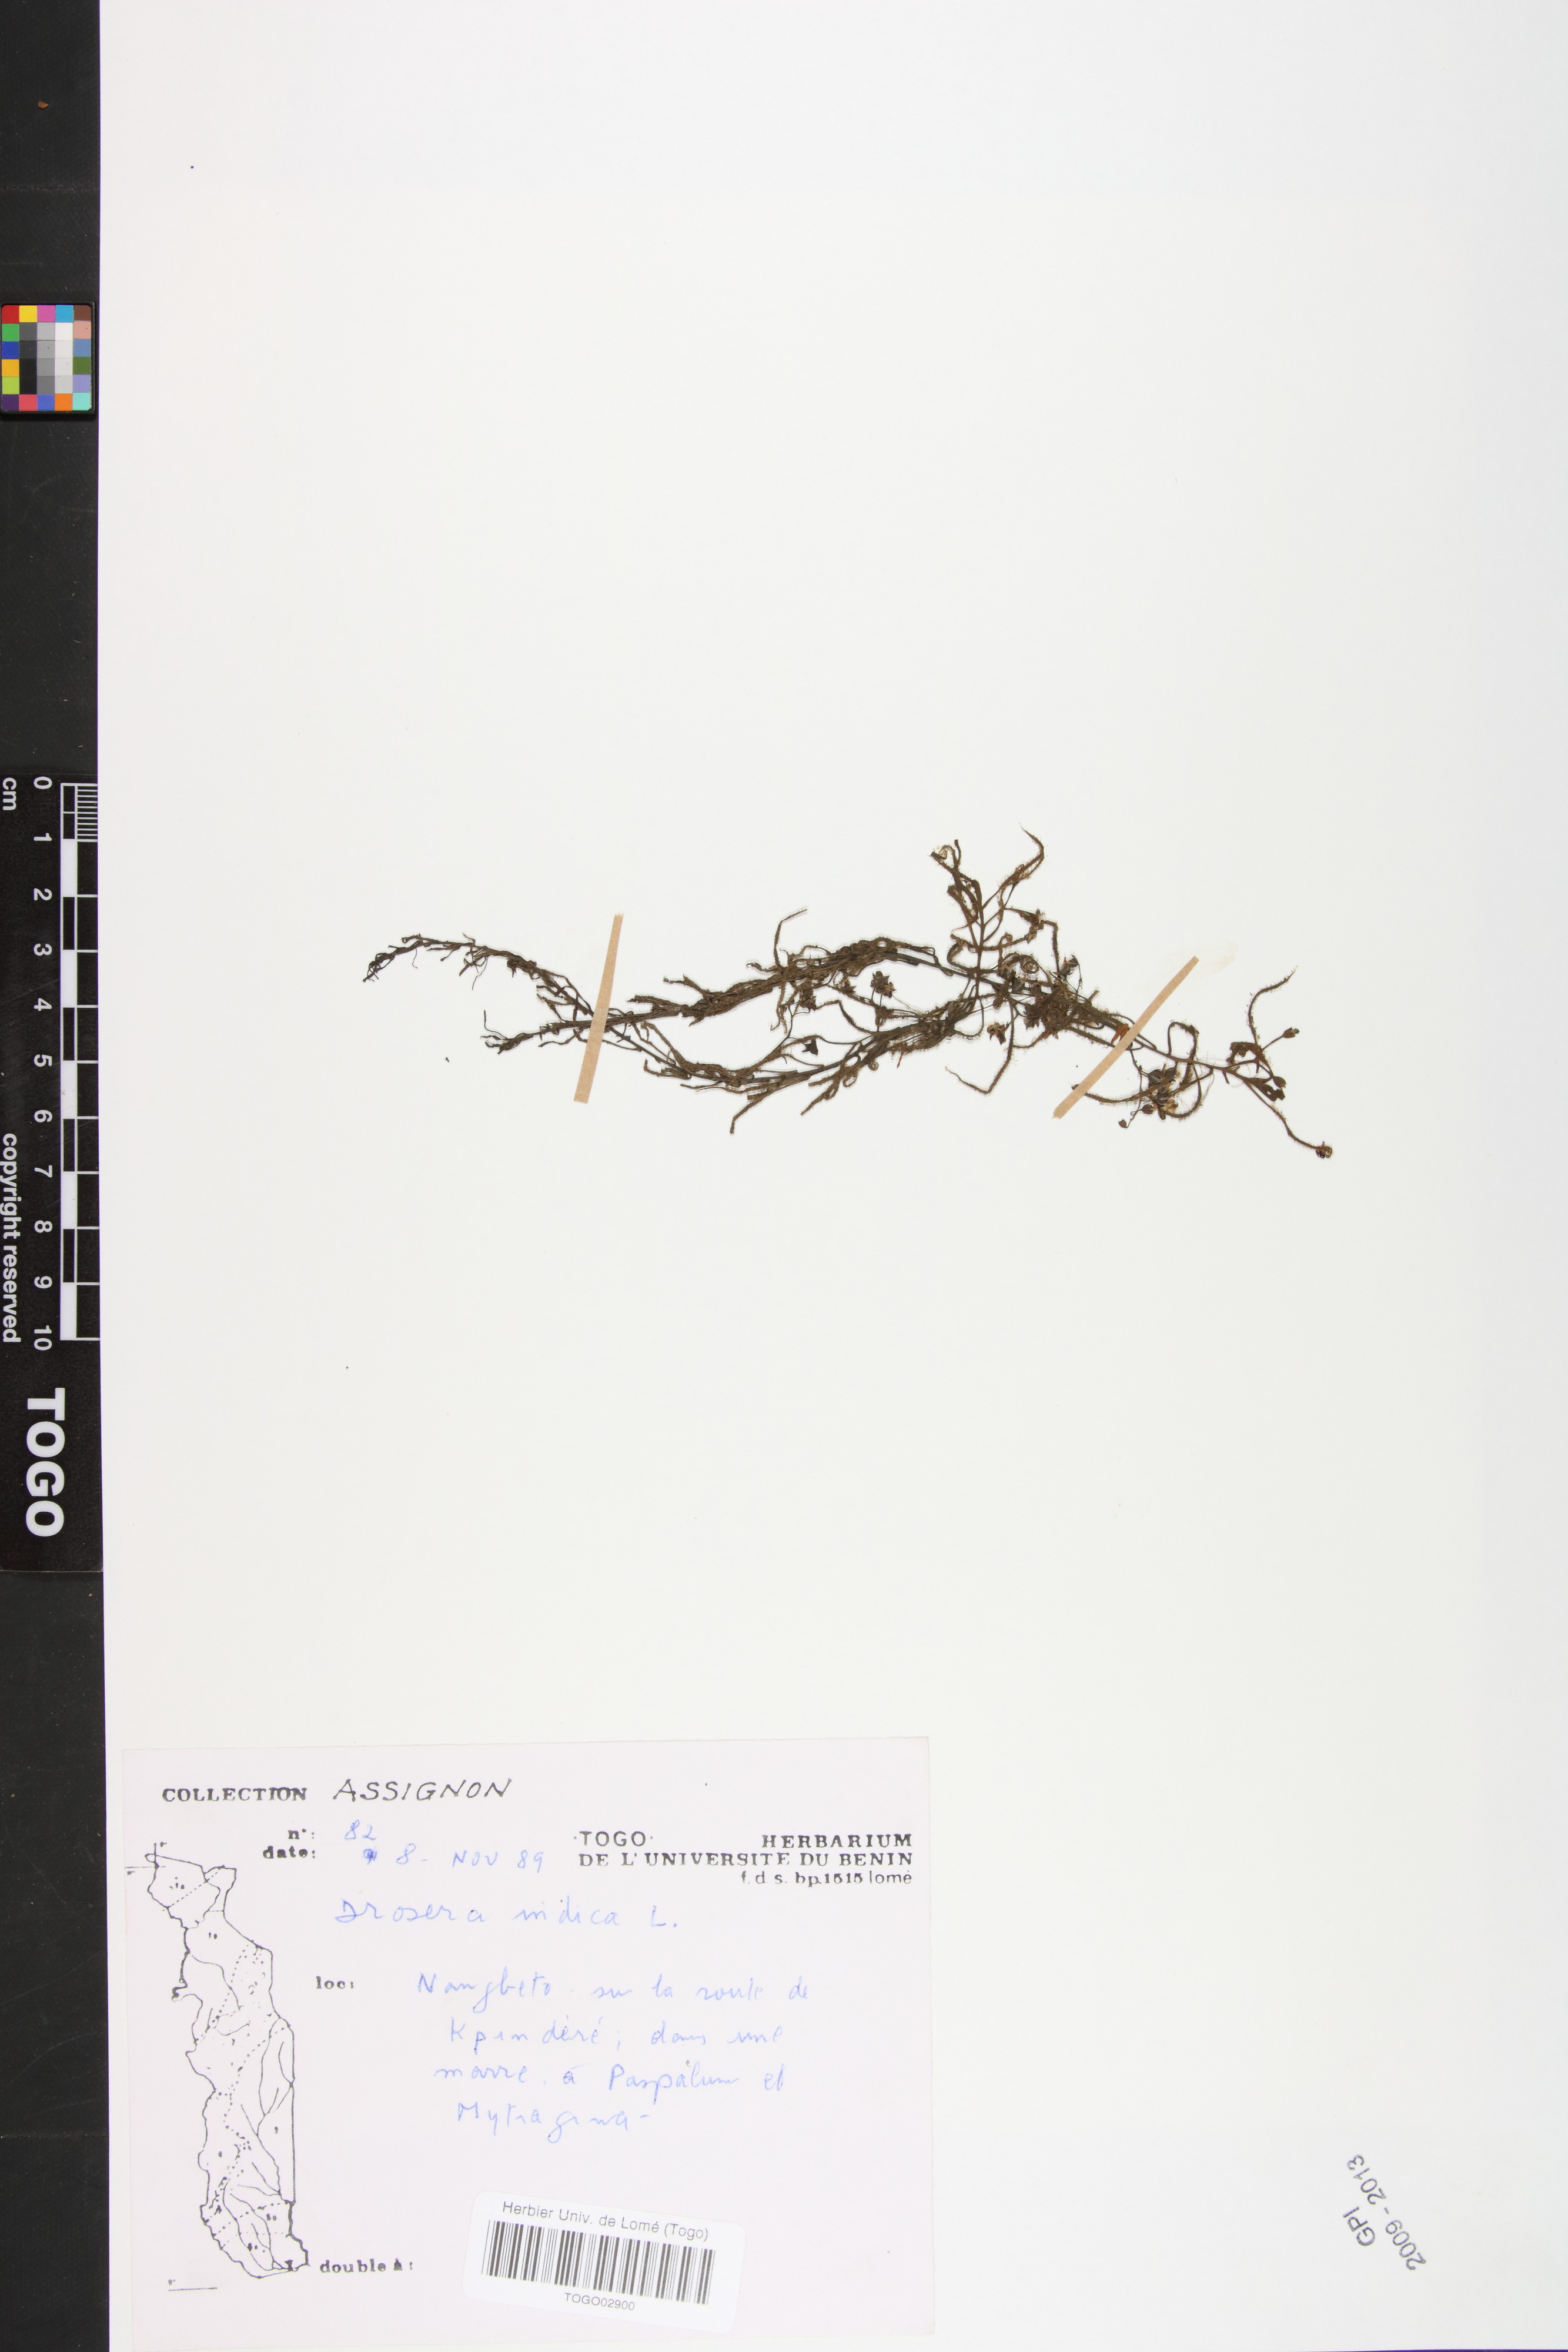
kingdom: Plantae
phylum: Tracheophyta
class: Magnoliopsida
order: Caryophyllales
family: Droseraceae
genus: Drosera
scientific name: Drosera indica
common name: Indian sundew
